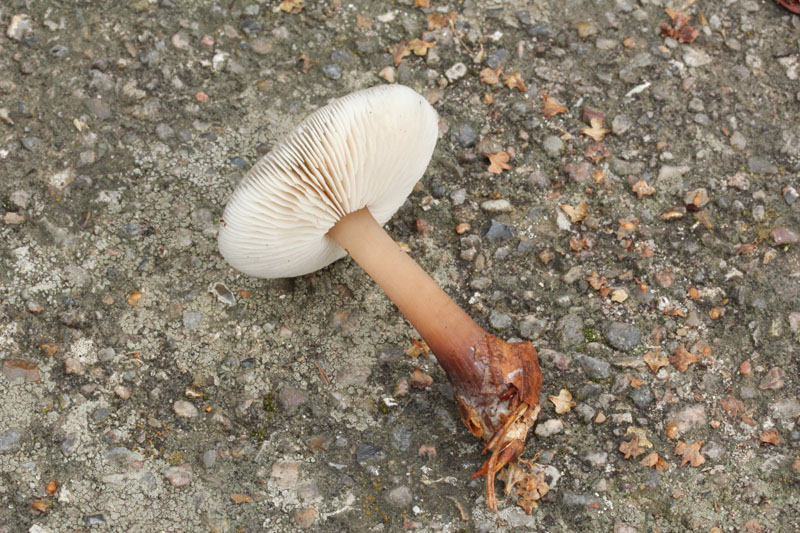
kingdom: Fungi
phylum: Basidiomycota
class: Agaricomycetes
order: Agaricales
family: Omphalotaceae
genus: Rhodocollybia
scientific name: Rhodocollybia asema
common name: horngrå fladhat
